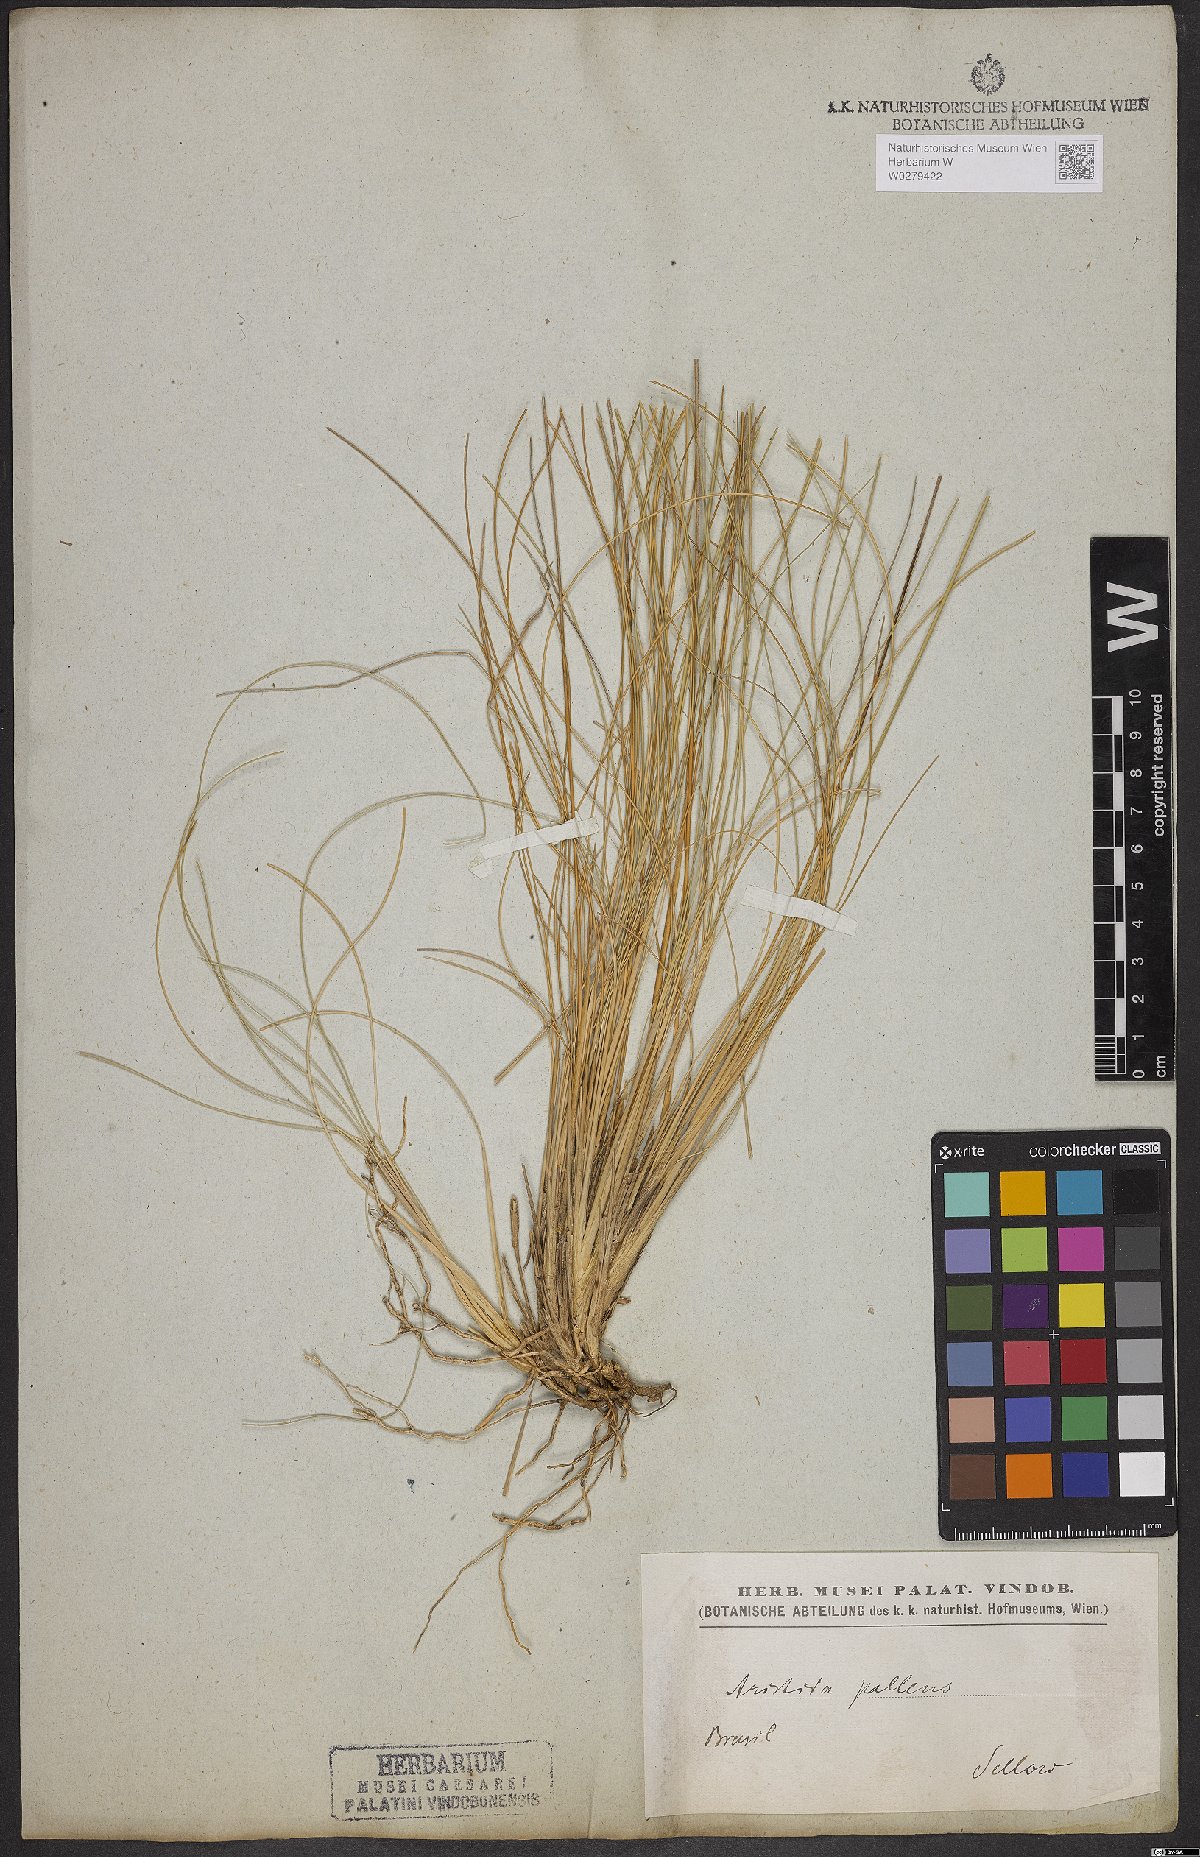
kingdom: Plantae
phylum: Tracheophyta
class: Liliopsida
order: Poales
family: Poaceae
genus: Aristida
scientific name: Aristida pallens
